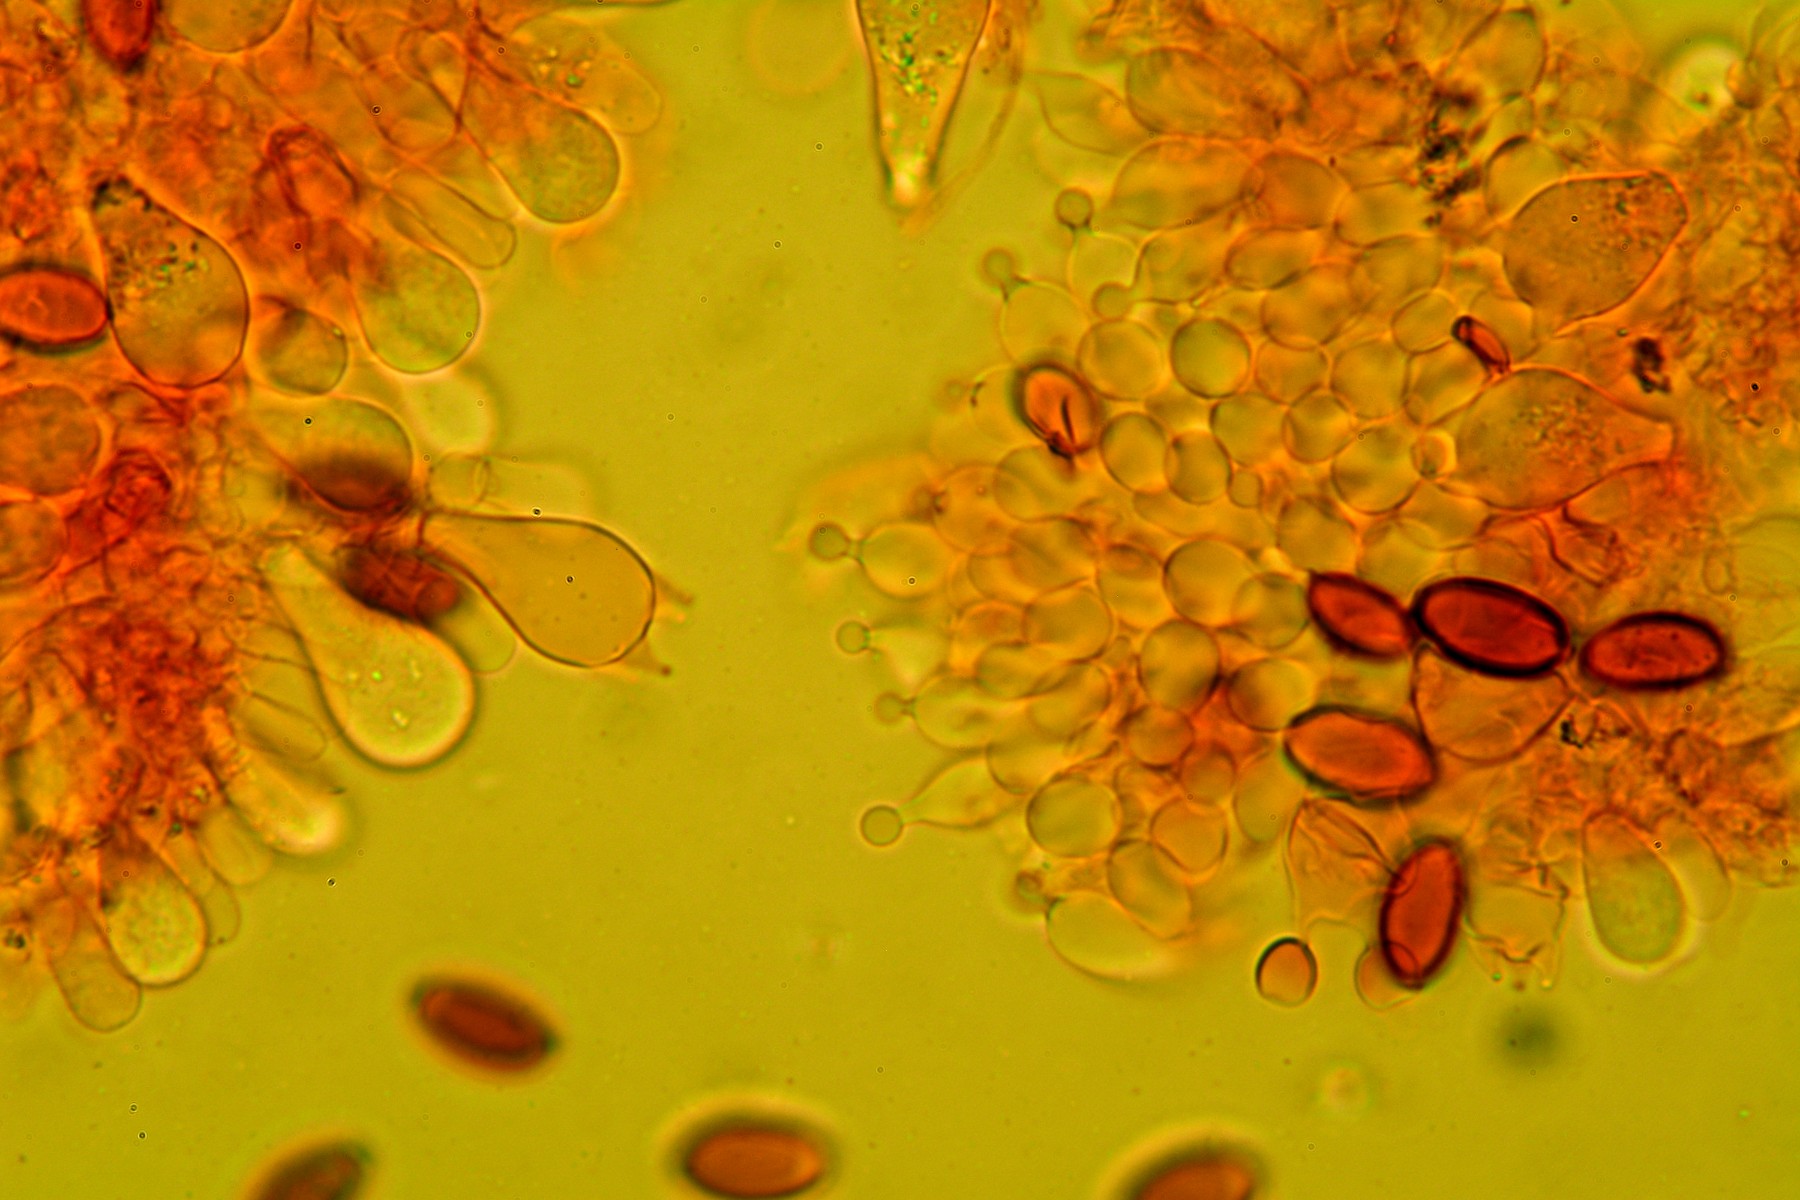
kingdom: Fungi
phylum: Basidiomycota
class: Agaricomycetes
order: Agaricales
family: Bolbitiaceae
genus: Conocybe
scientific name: Conocybe pubescens
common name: gødnings-keglehat
